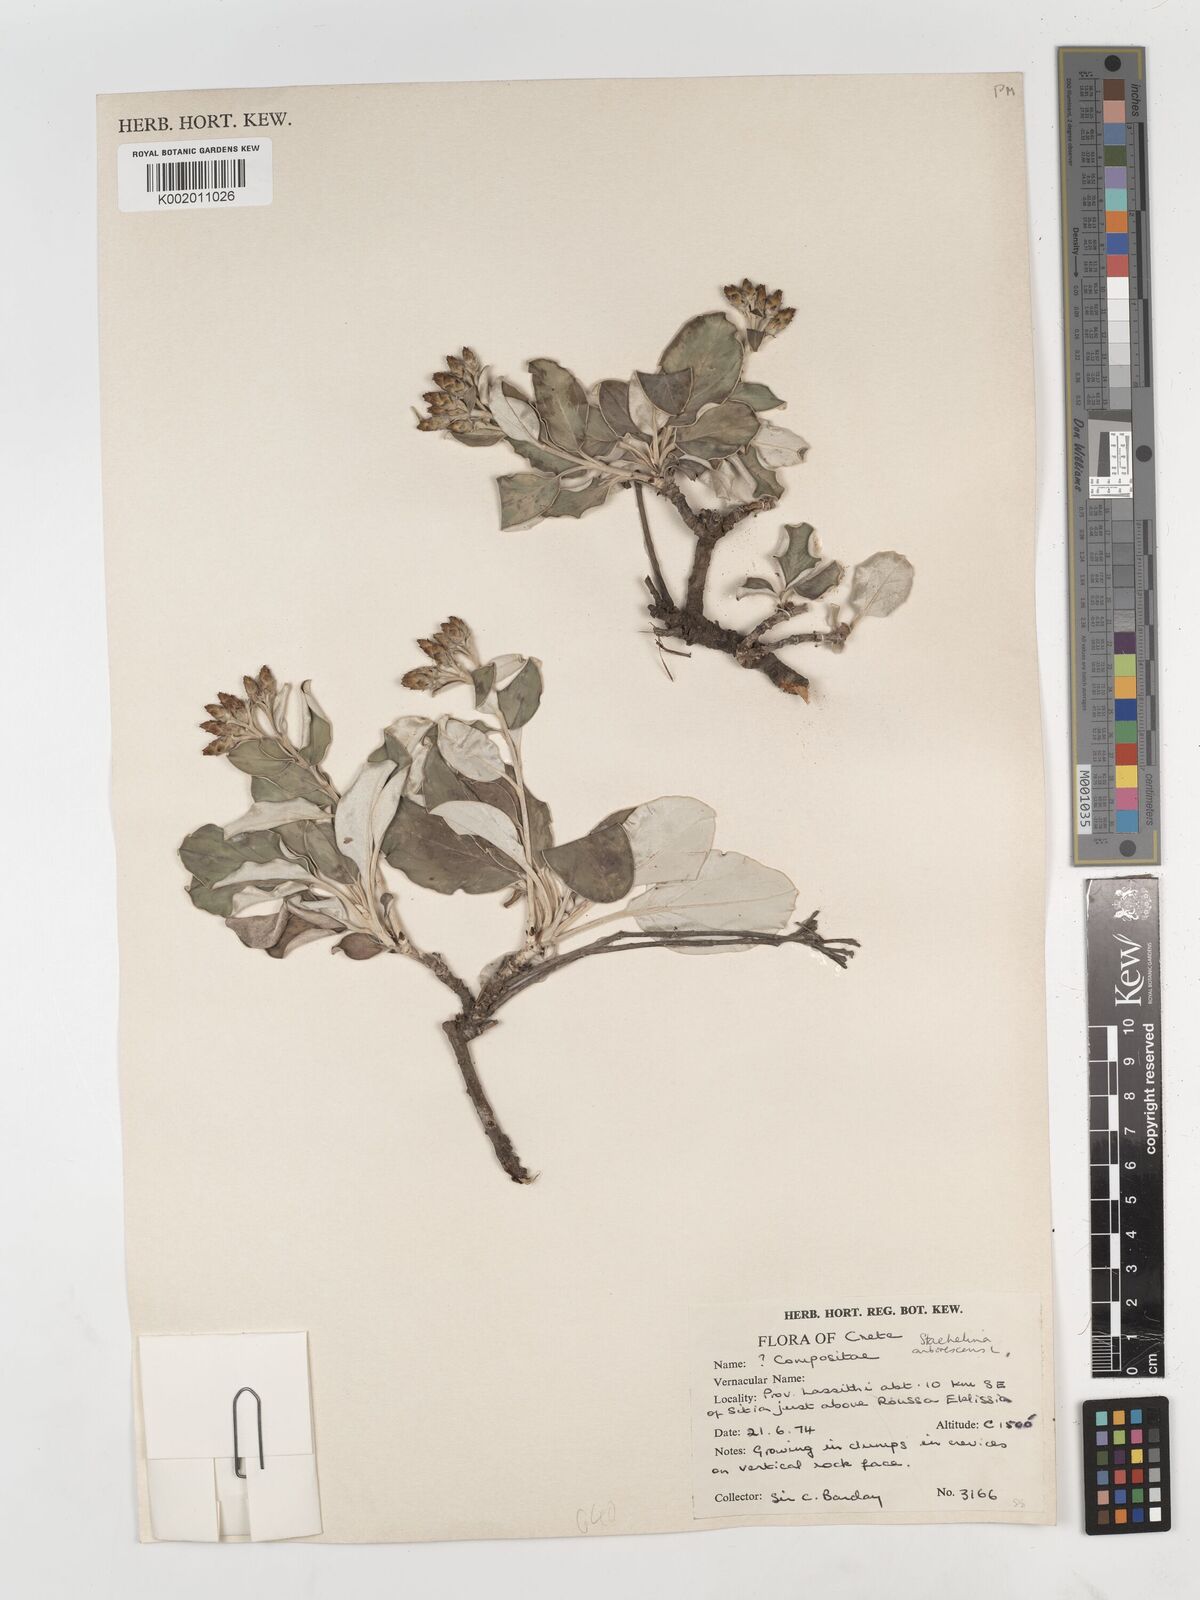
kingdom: Plantae
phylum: Tracheophyta
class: Magnoliopsida
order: Asterales
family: Asteraceae
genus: Staehelina
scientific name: Staehelina petiolata
